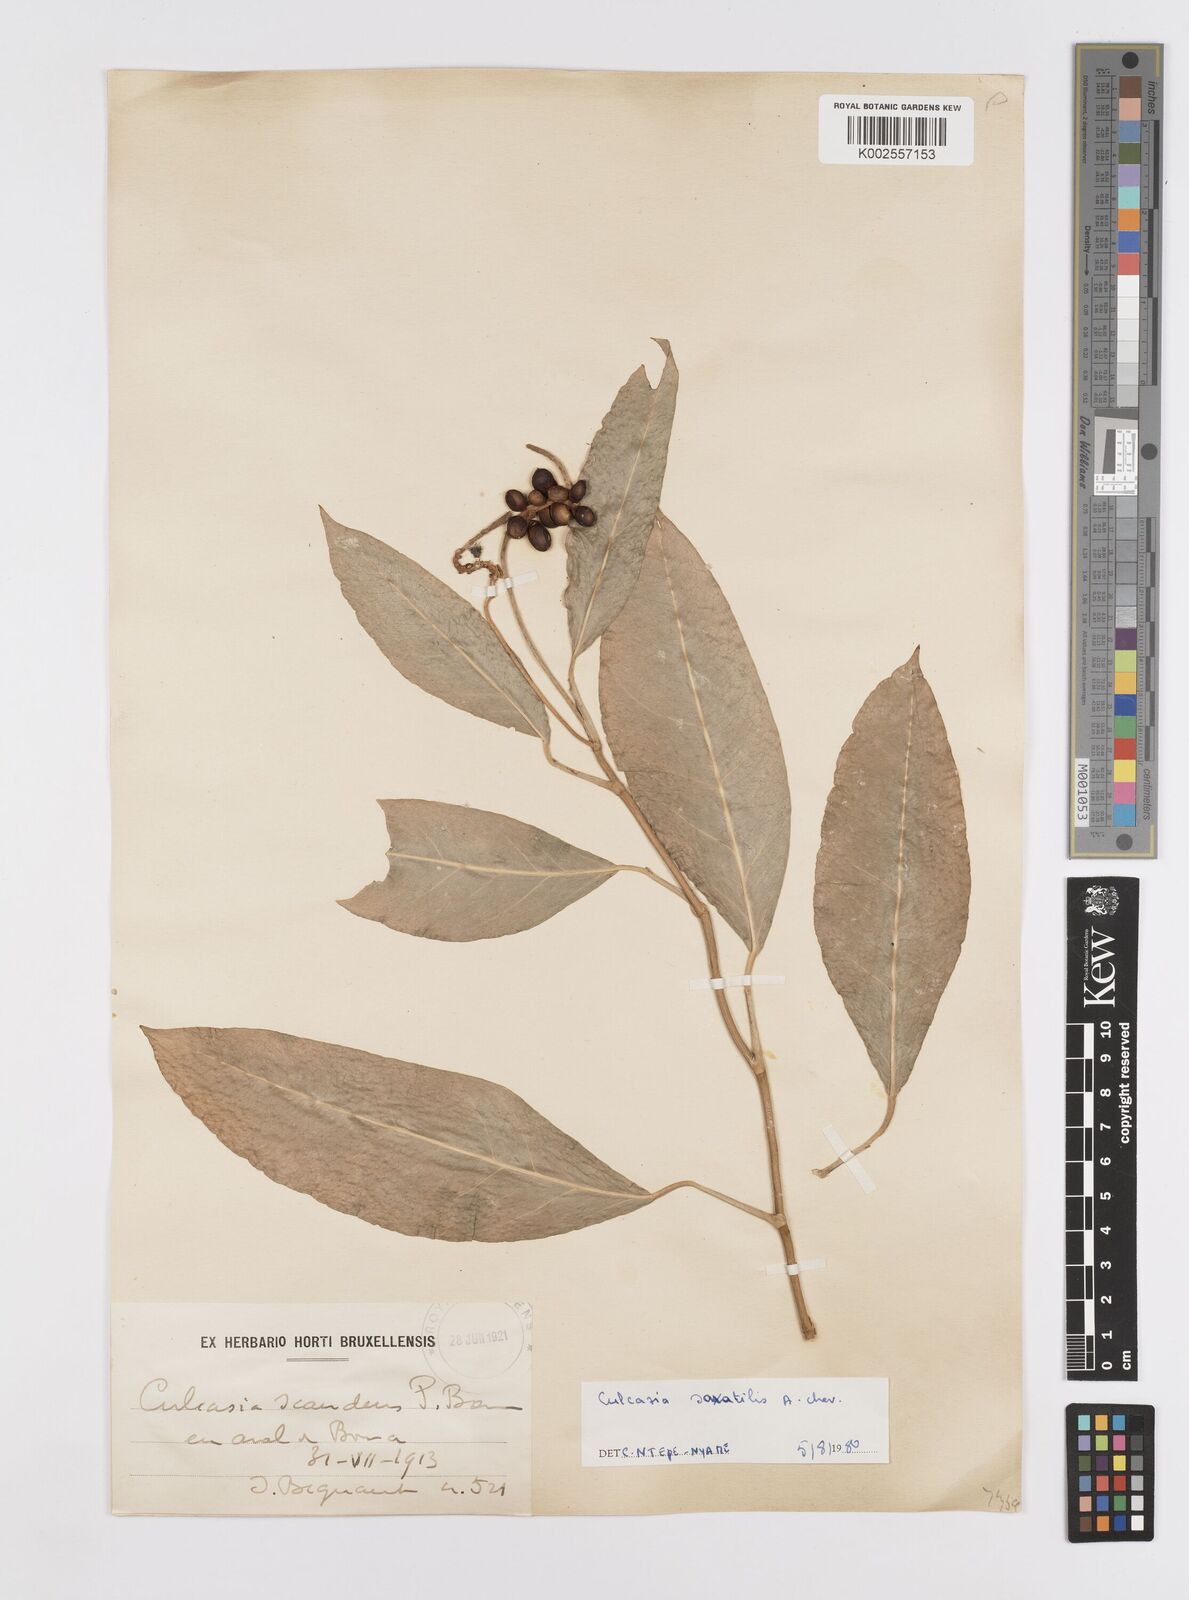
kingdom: Plantae
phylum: Tracheophyta
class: Liliopsida
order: Alismatales
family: Araceae
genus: Culcasia
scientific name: Culcasia scandens
